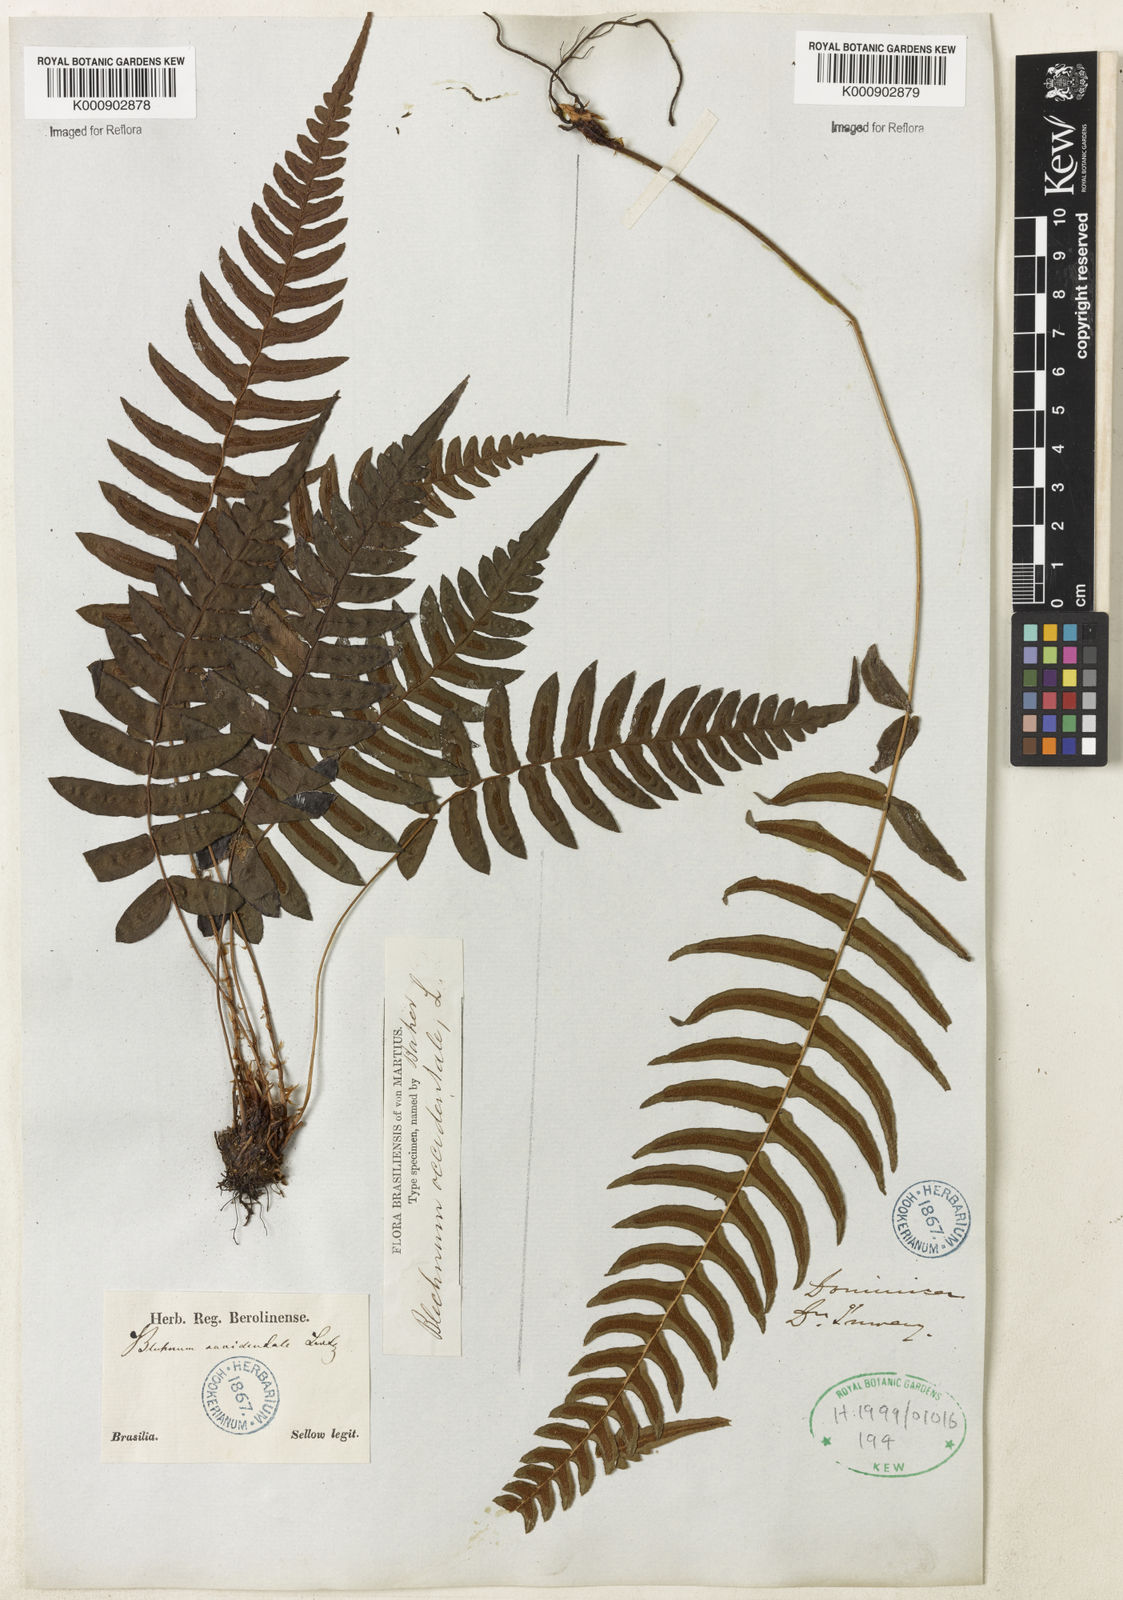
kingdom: Plantae
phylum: Tracheophyta
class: Polypodiopsida
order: Polypodiales
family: Blechnaceae
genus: Blechnum
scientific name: Blechnum occidentale
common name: Hammock fern
